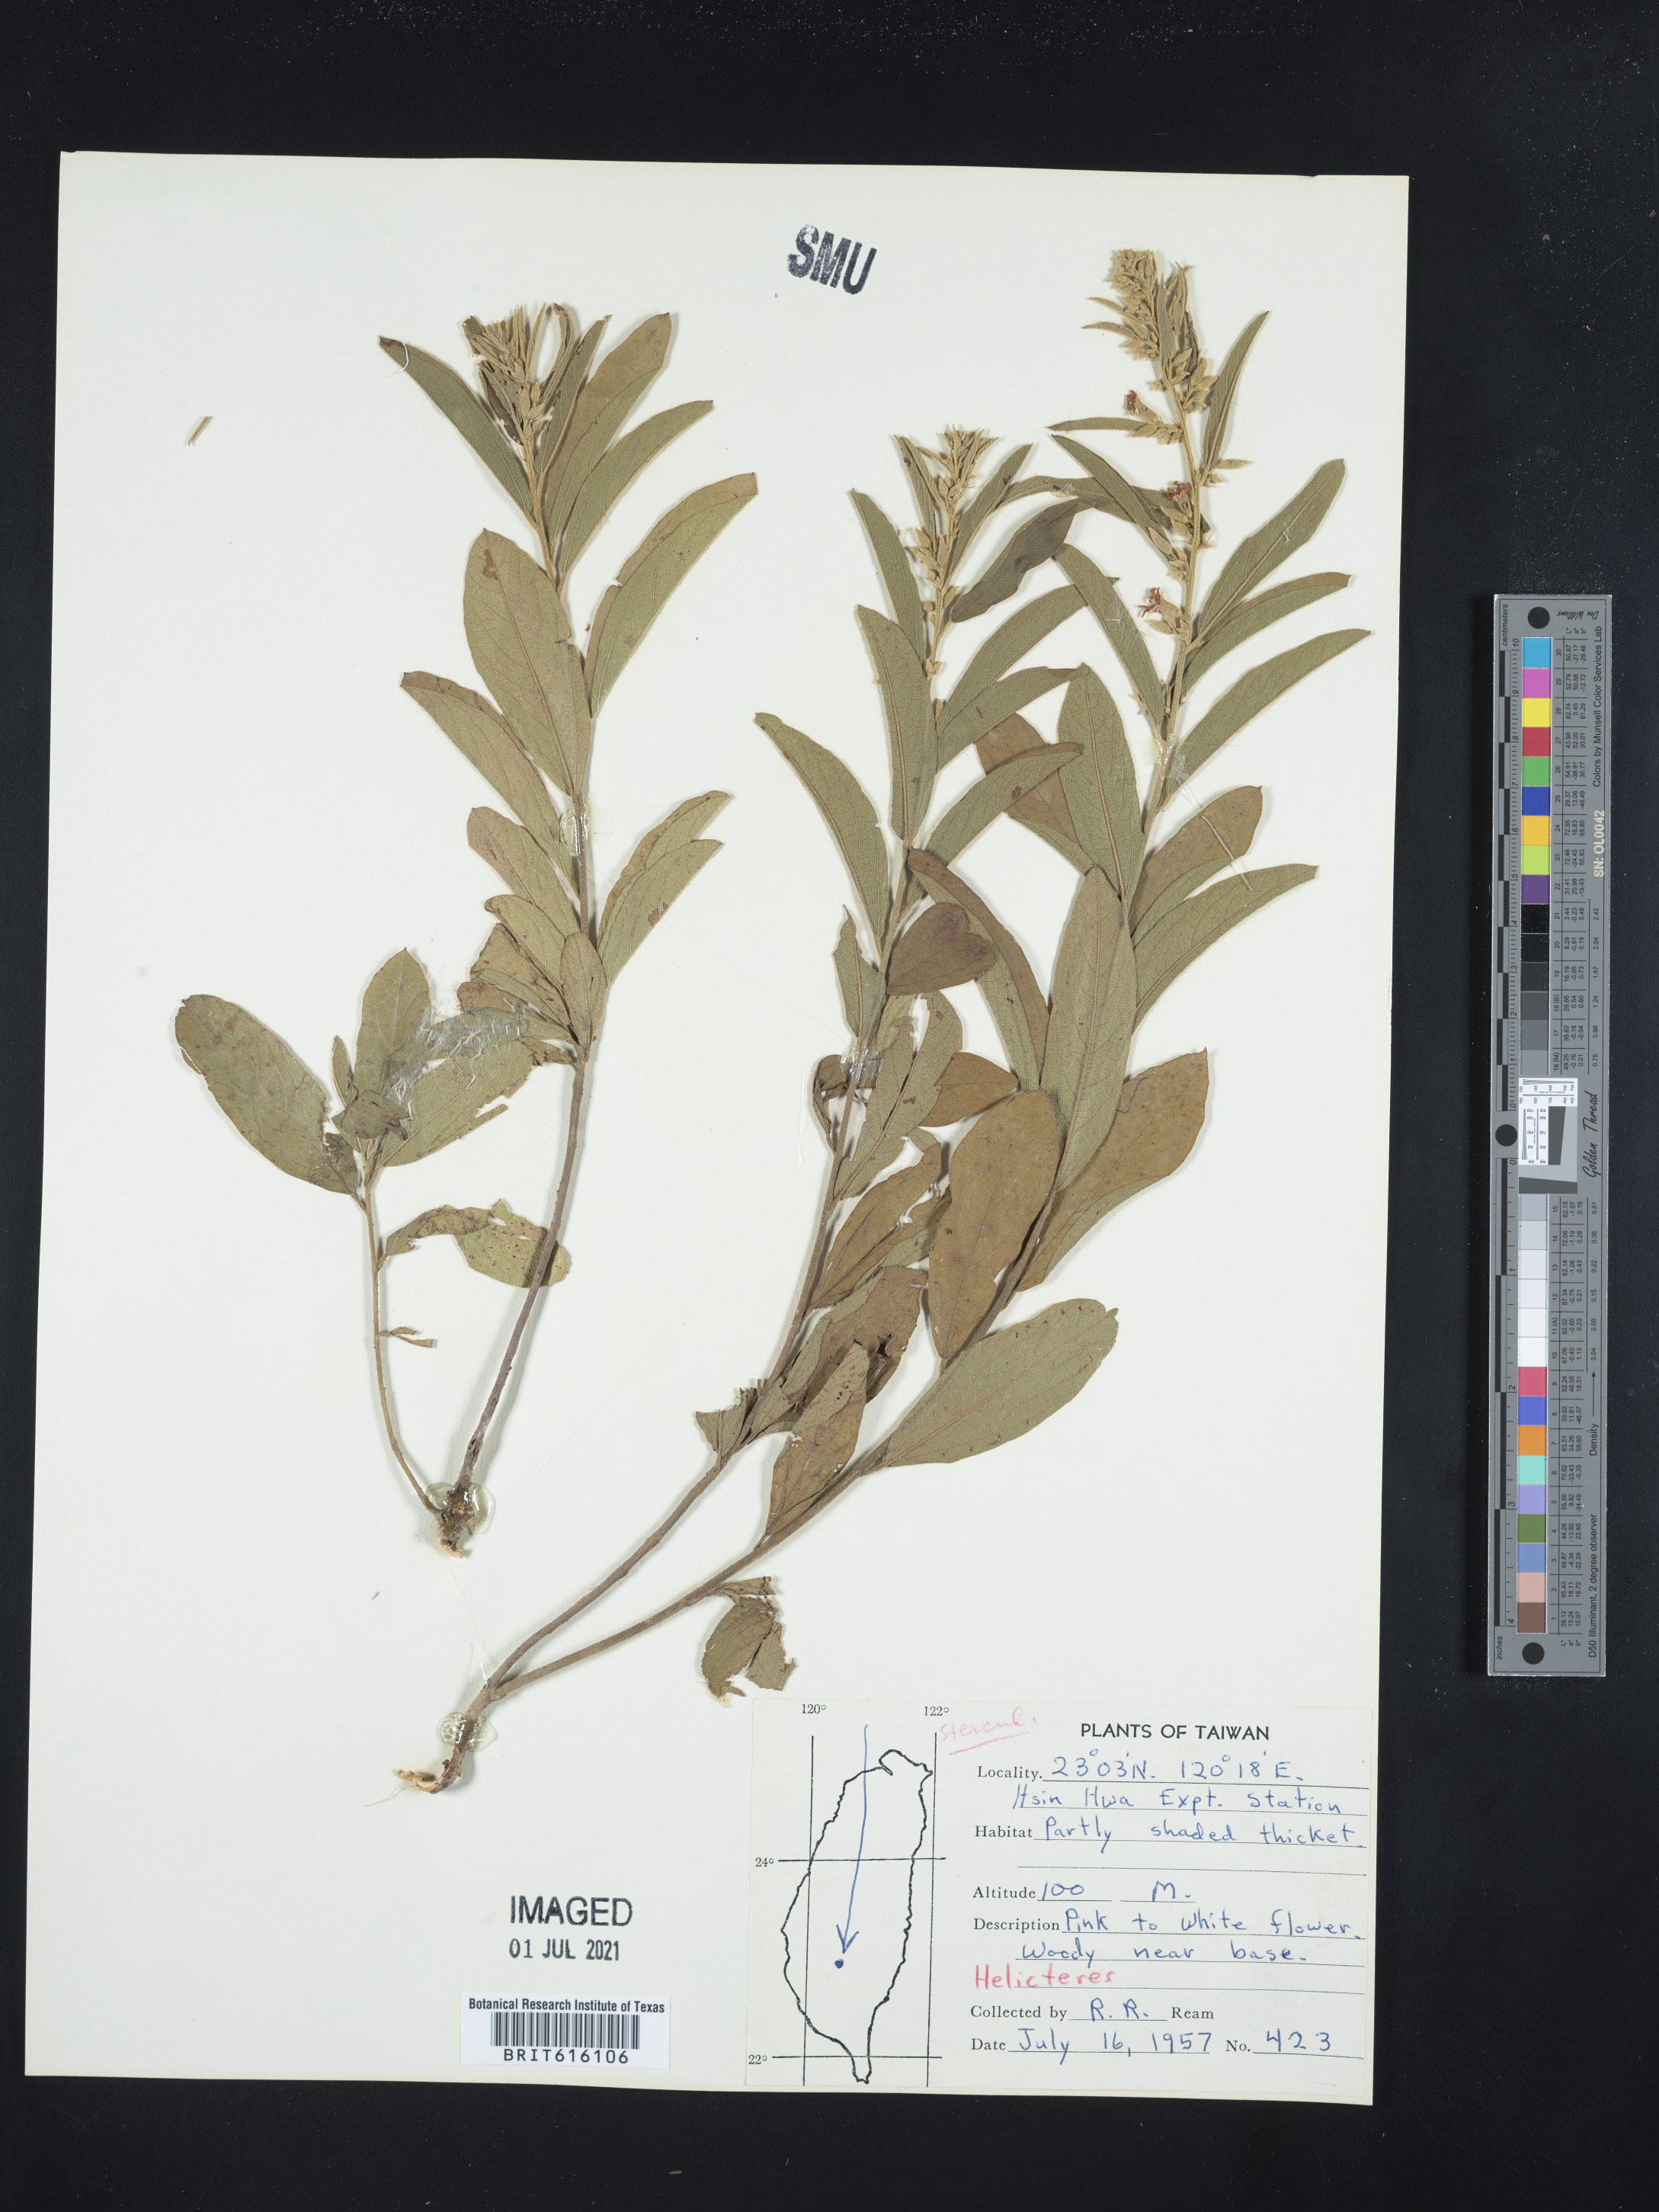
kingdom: Plantae
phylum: Tracheophyta
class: Magnoliopsida
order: Malvales
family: Malvaceae
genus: Helicteres
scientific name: Helicteres
